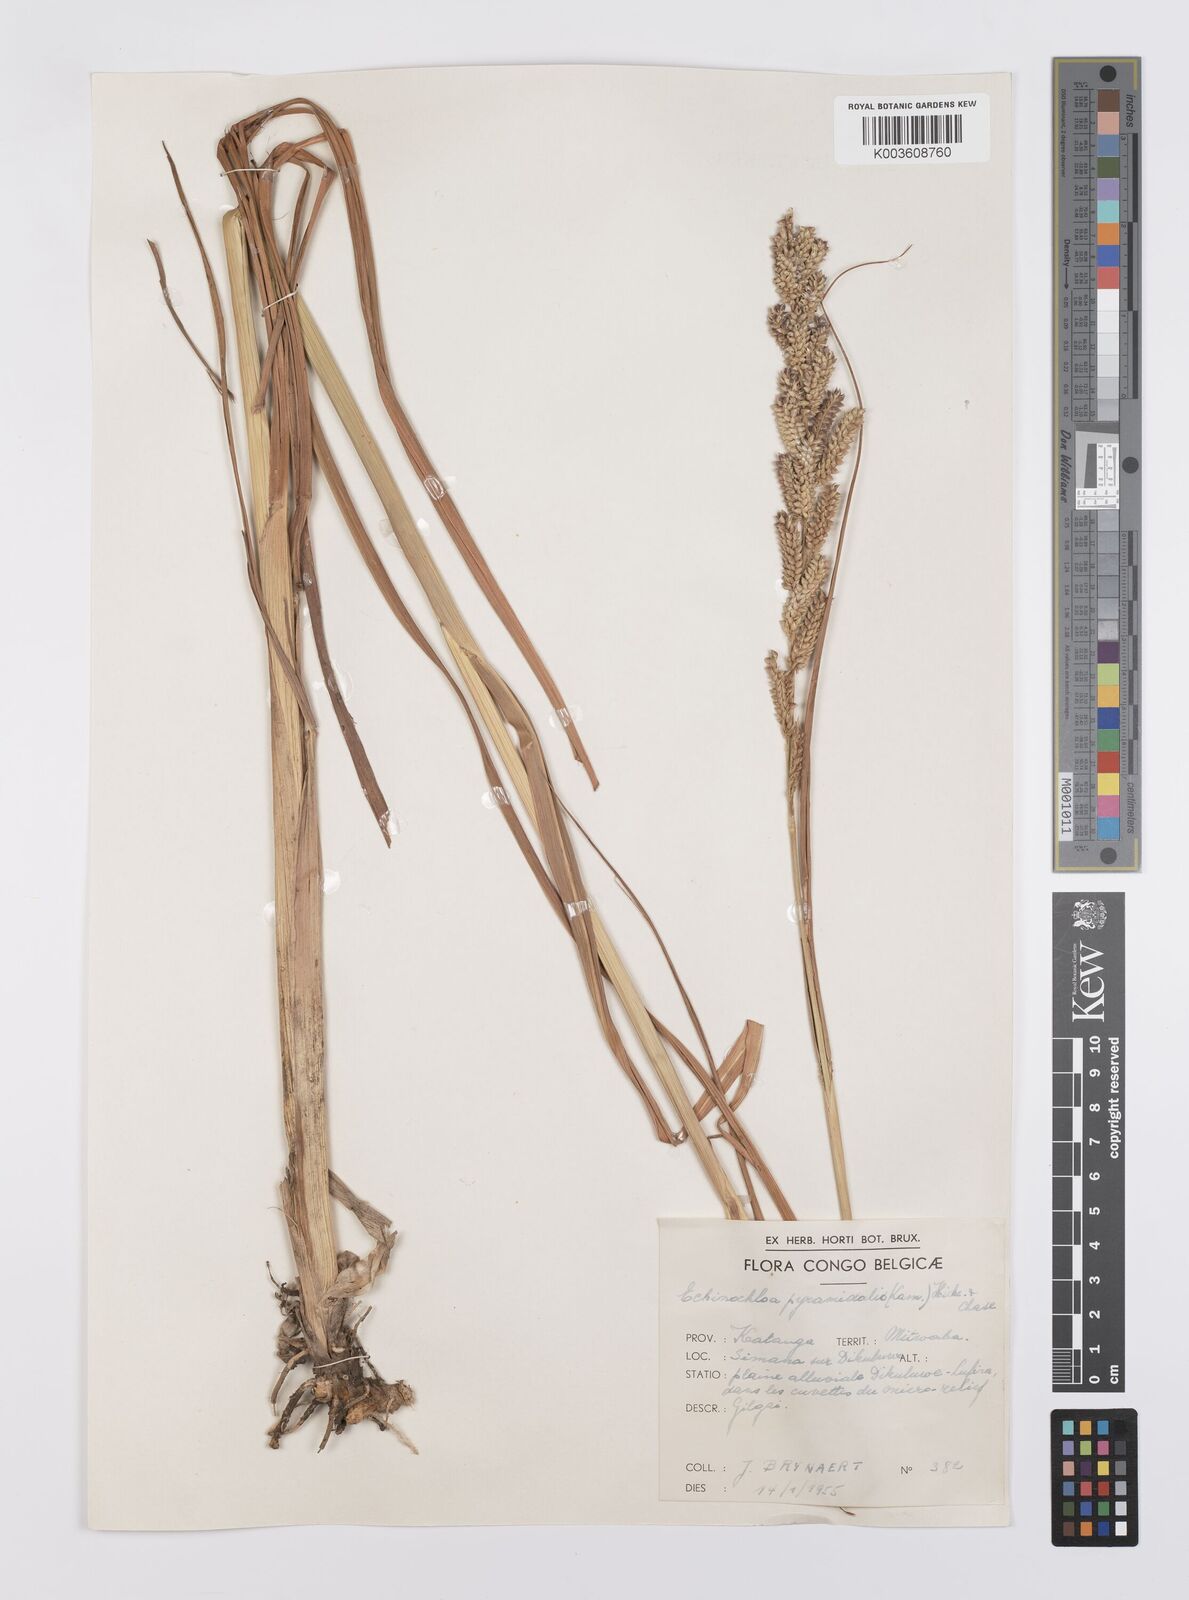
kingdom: Plantae
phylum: Tracheophyta
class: Liliopsida
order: Poales
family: Poaceae
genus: Echinochloa
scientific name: Echinochloa pyramidalis
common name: Antelope grass
